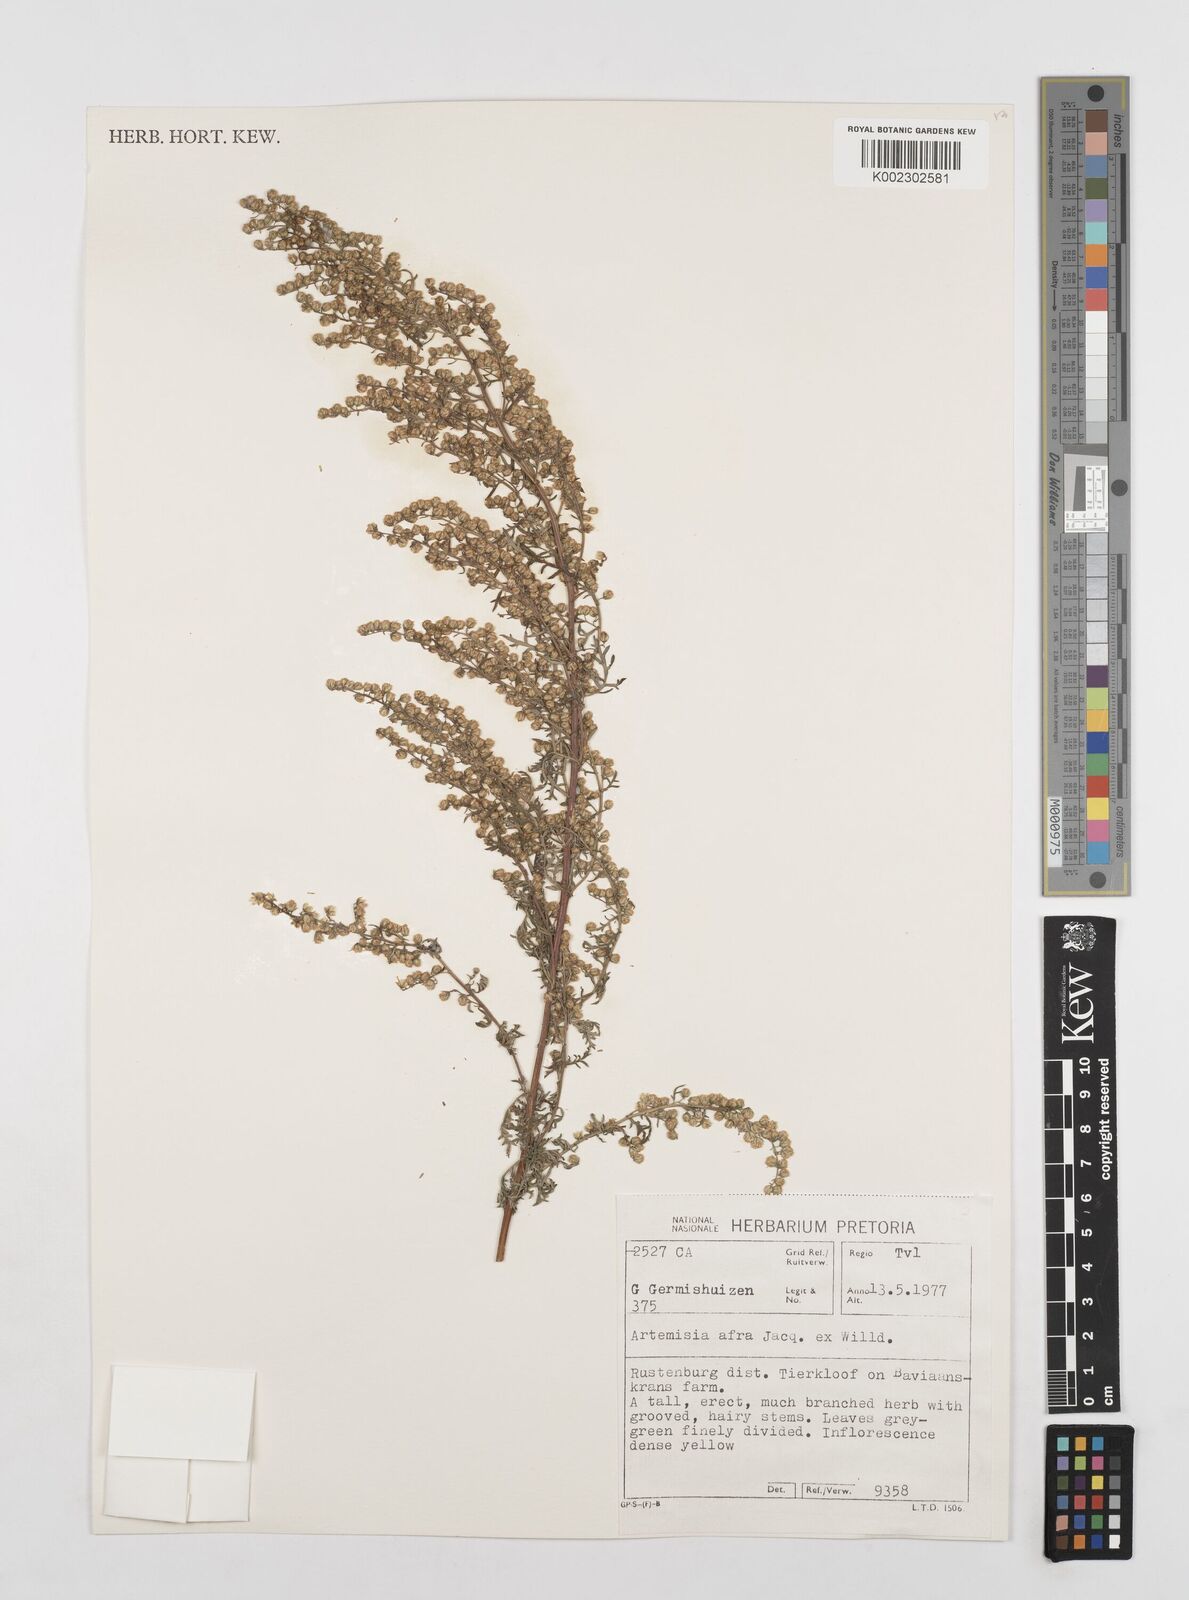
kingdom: Plantae
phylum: Tracheophyta
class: Magnoliopsida
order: Asterales
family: Asteraceae
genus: Artemisia
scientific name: Artemisia afra
